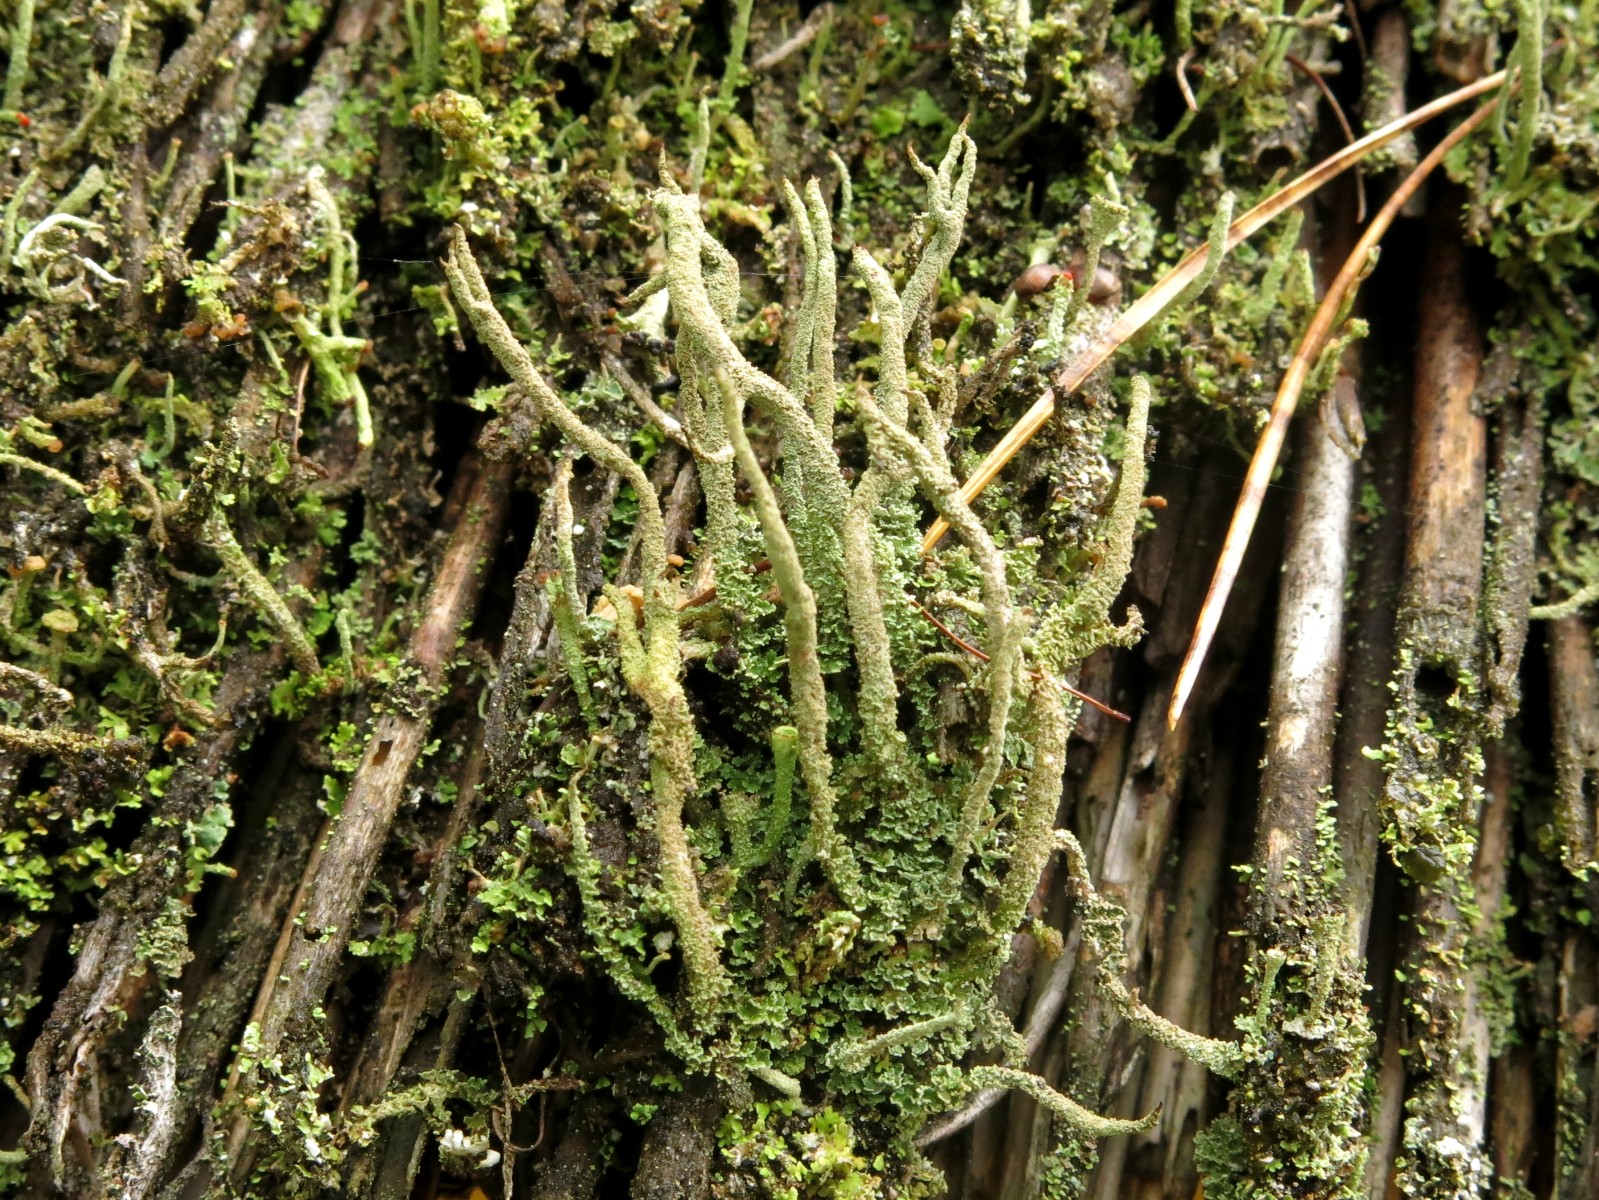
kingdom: Fungi
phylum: Ascomycota
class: Lecanoromycetes
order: Lecanorales
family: Cladoniaceae
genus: Cladonia
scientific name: Cladonia glauca
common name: grågrøn bægerlav
